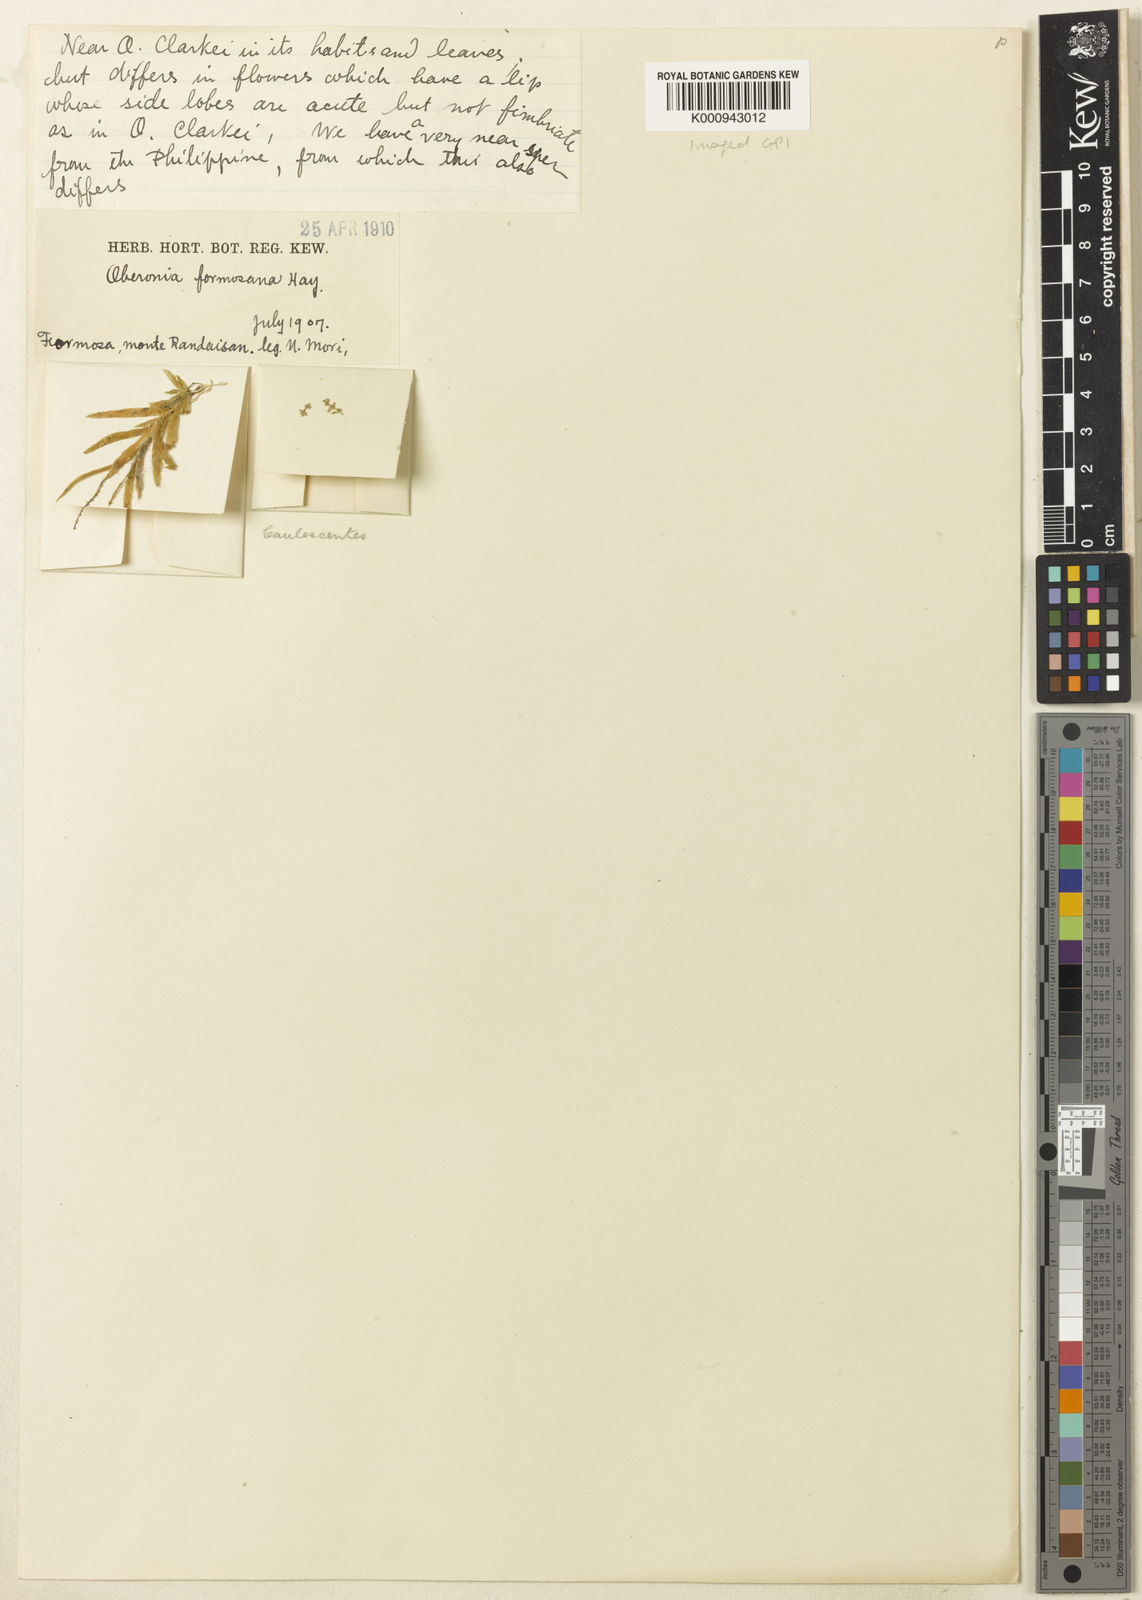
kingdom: Plantae
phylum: Tracheophyta
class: Liliopsida
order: Asparagales
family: Orchidaceae
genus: Oberonia
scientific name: Oberonia formosana
